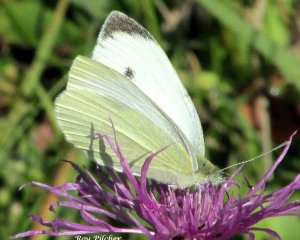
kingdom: Animalia
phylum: Arthropoda
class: Insecta
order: Lepidoptera
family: Pieridae
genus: Pieris
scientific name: Pieris rapae
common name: Cabbage White
